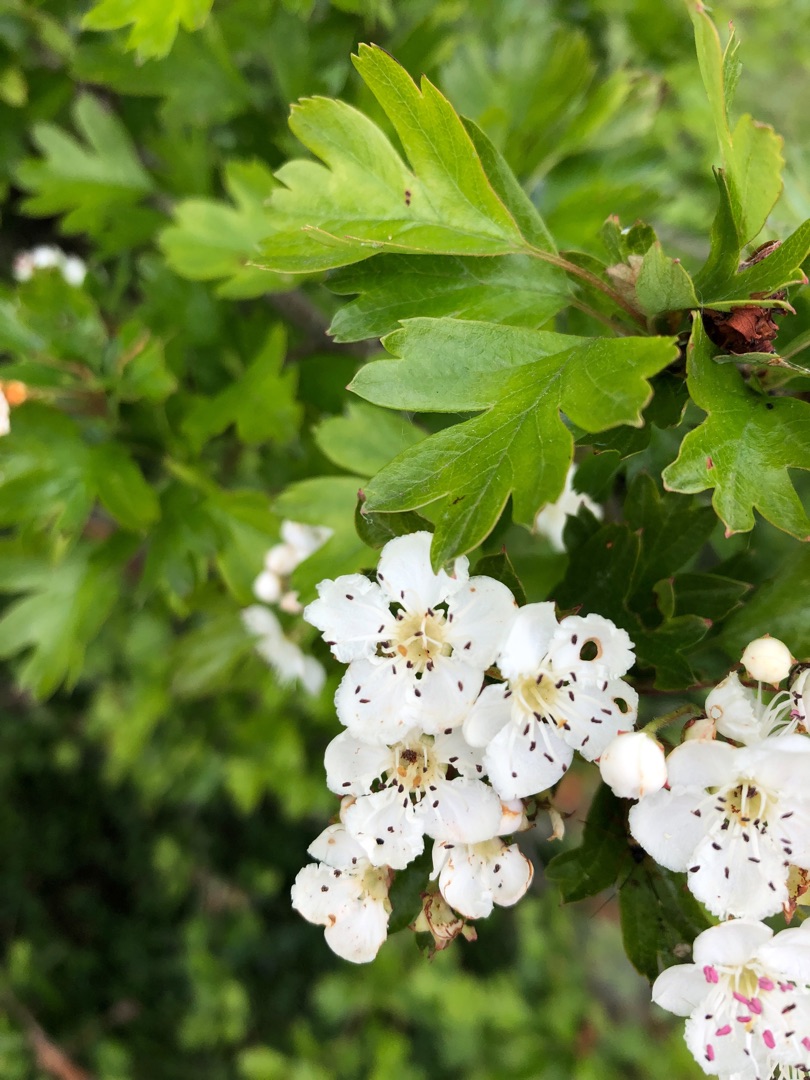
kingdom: Plantae
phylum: Tracheophyta
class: Magnoliopsida
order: Rosales
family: Rosaceae
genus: Crataegus
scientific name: Crataegus media
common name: Almindelig hvidtjørn × engriflet hvidtjørn
